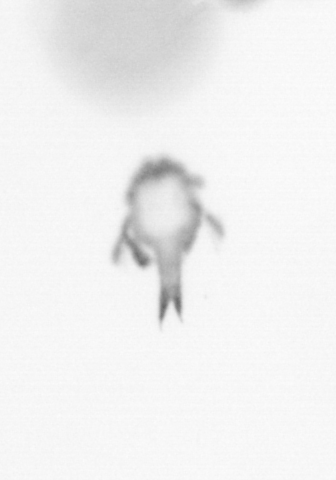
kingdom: Animalia
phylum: Arthropoda
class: Copepoda
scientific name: Copepoda
